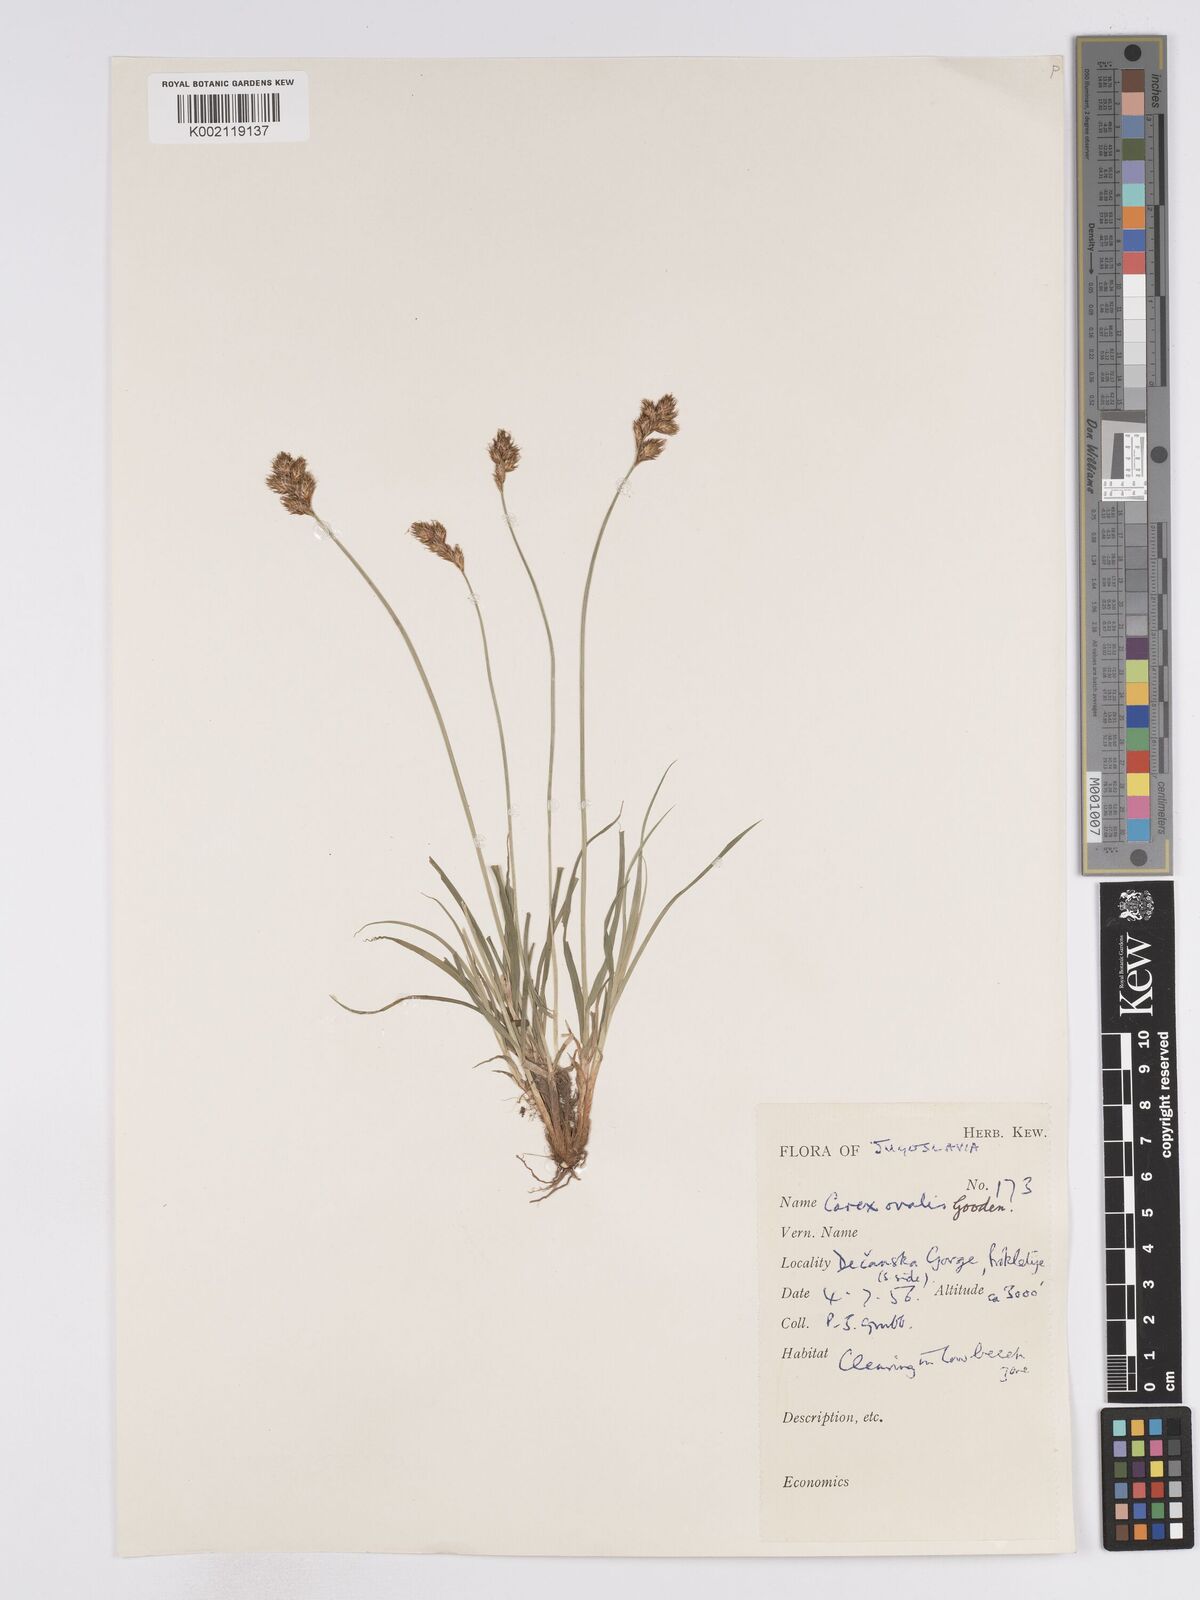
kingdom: Plantae
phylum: Tracheophyta
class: Liliopsida
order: Poales
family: Cyperaceae
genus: Carex
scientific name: Carex leporina
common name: Oval sedge
